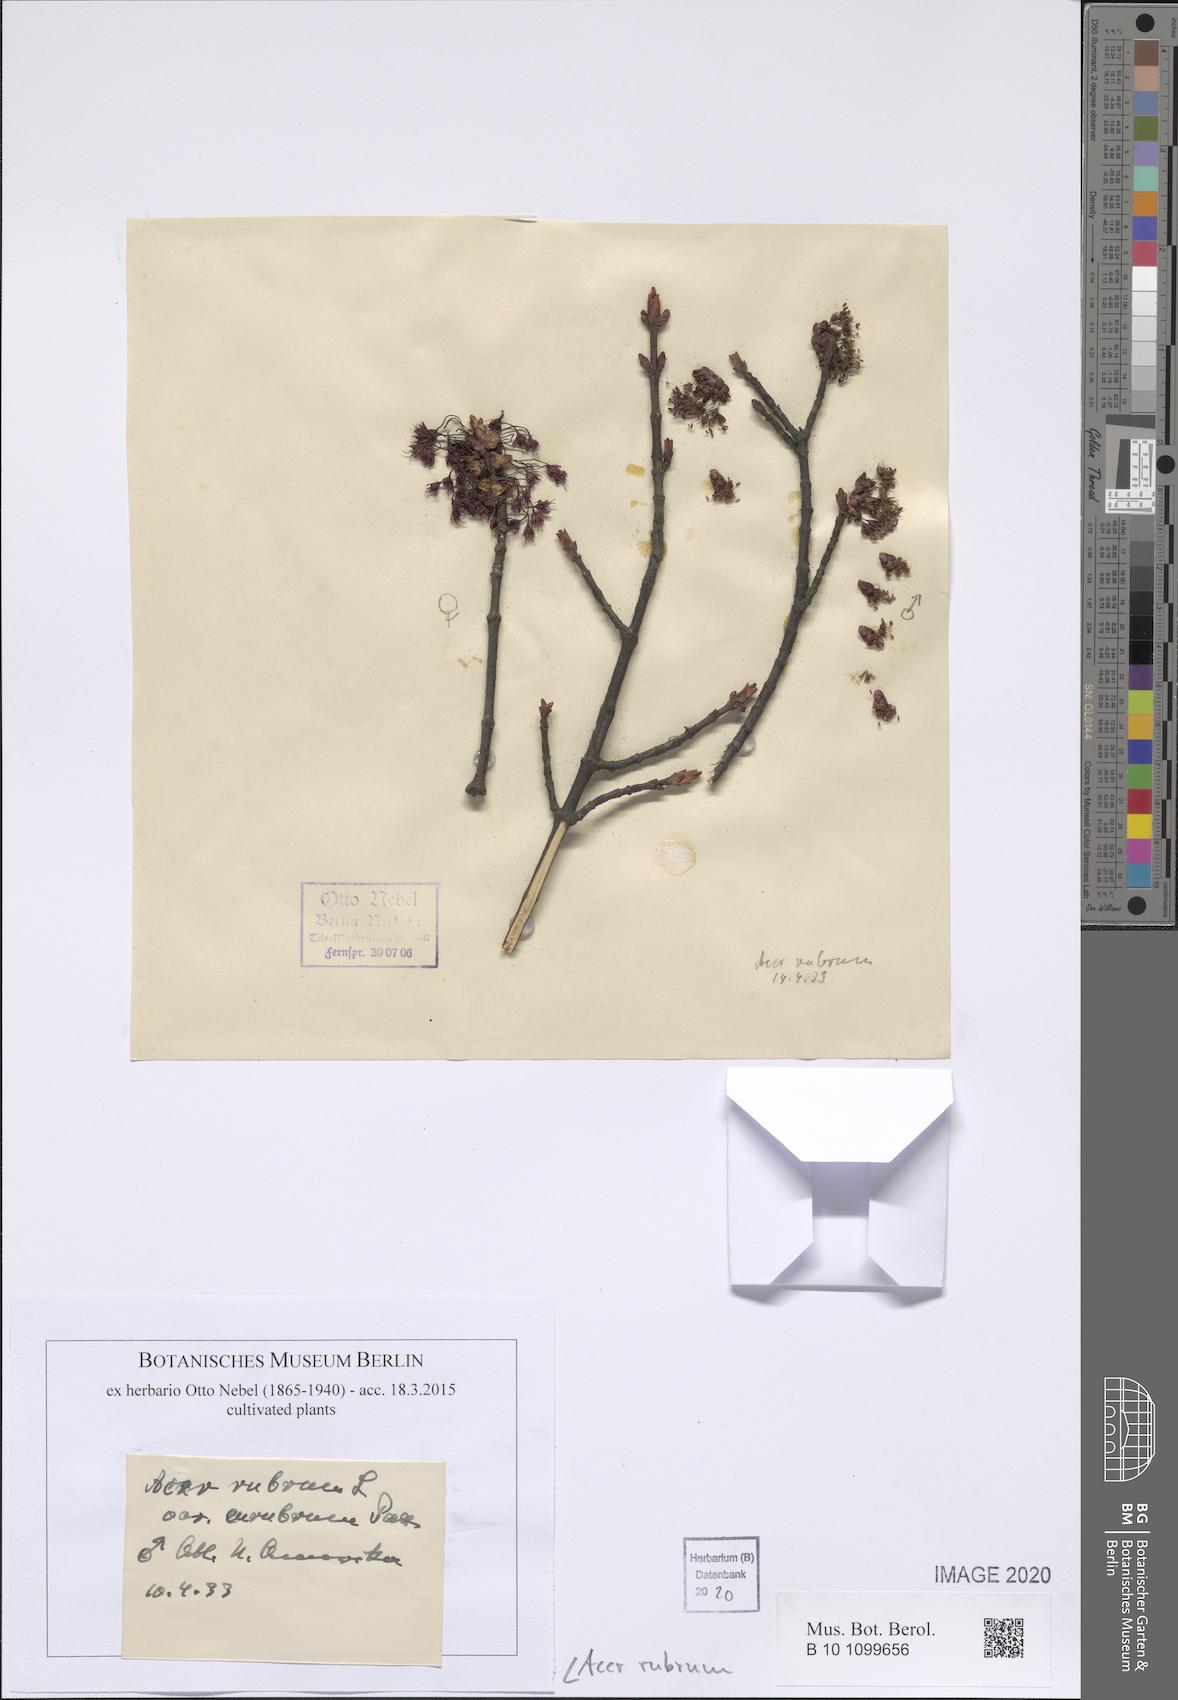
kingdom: Plantae
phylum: Tracheophyta
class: Magnoliopsida
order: Sapindales
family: Sapindaceae
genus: Acer
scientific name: Acer rubrum
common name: Red maple
